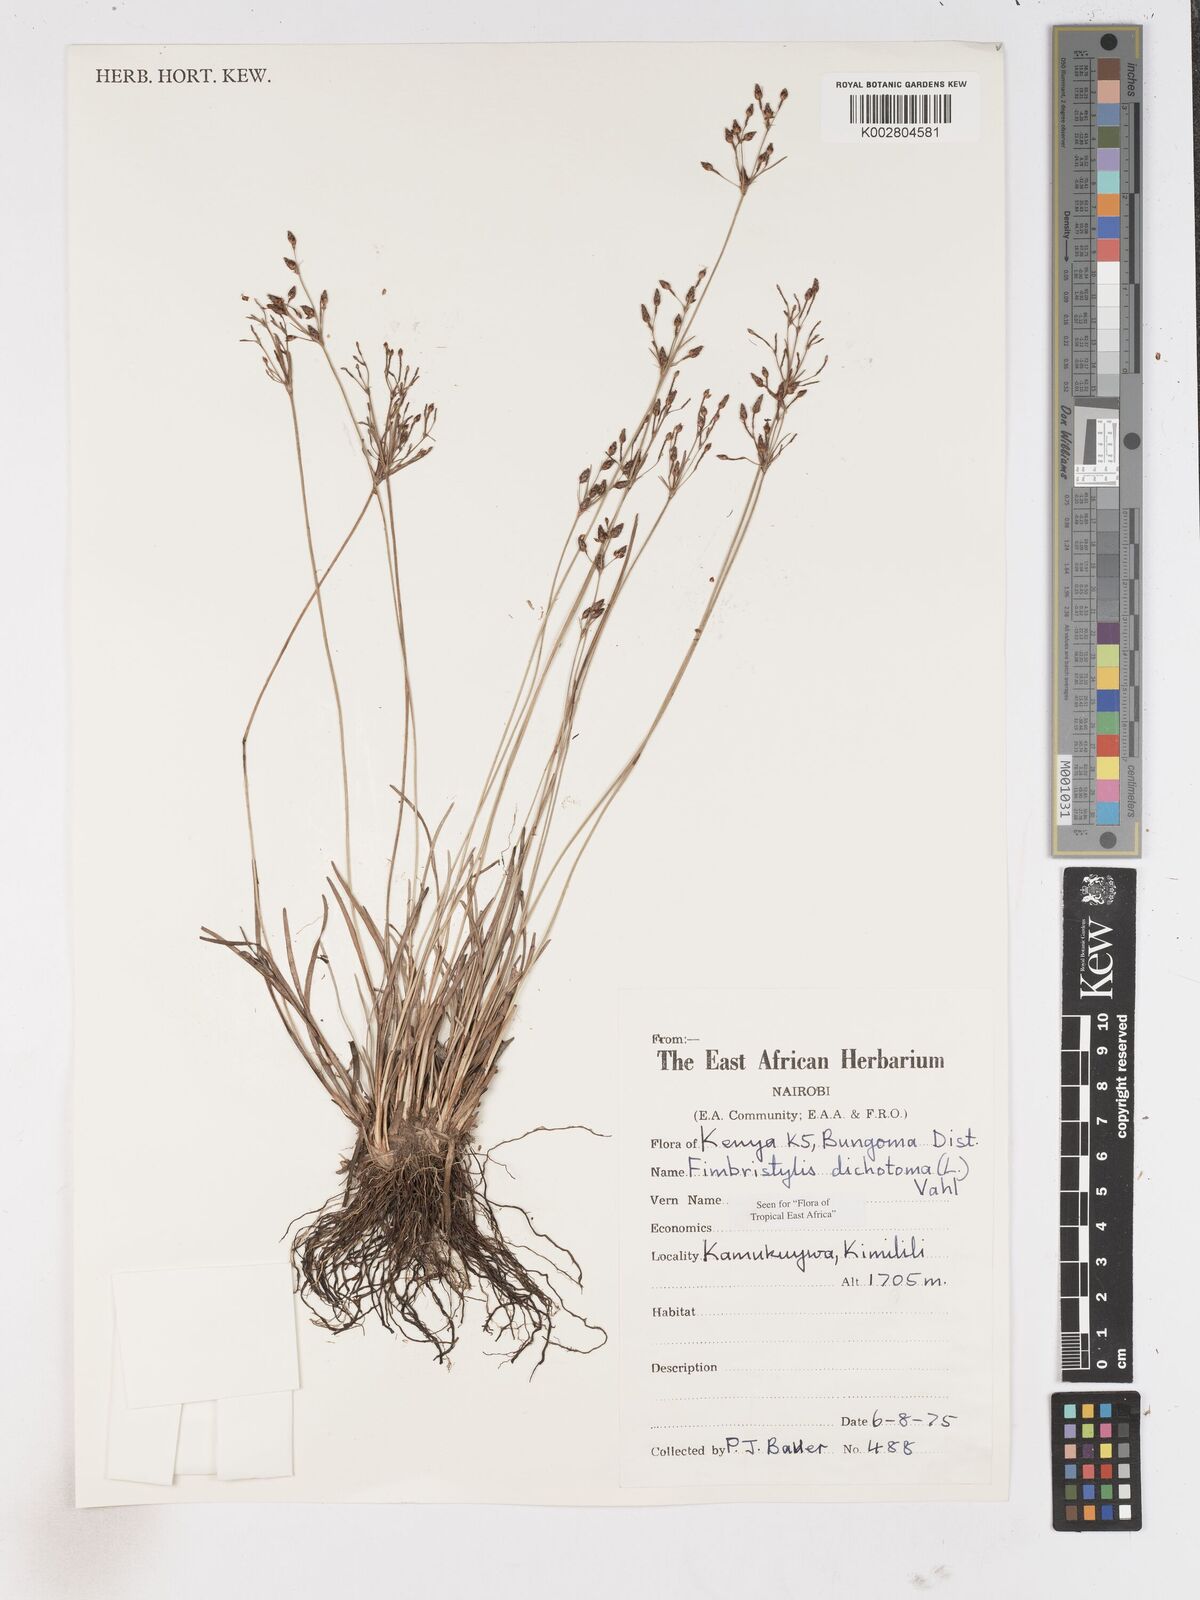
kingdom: Plantae
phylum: Tracheophyta
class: Liliopsida
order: Poales
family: Cyperaceae
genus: Fimbristylis
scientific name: Fimbristylis dichotoma
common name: Forked fimbry
